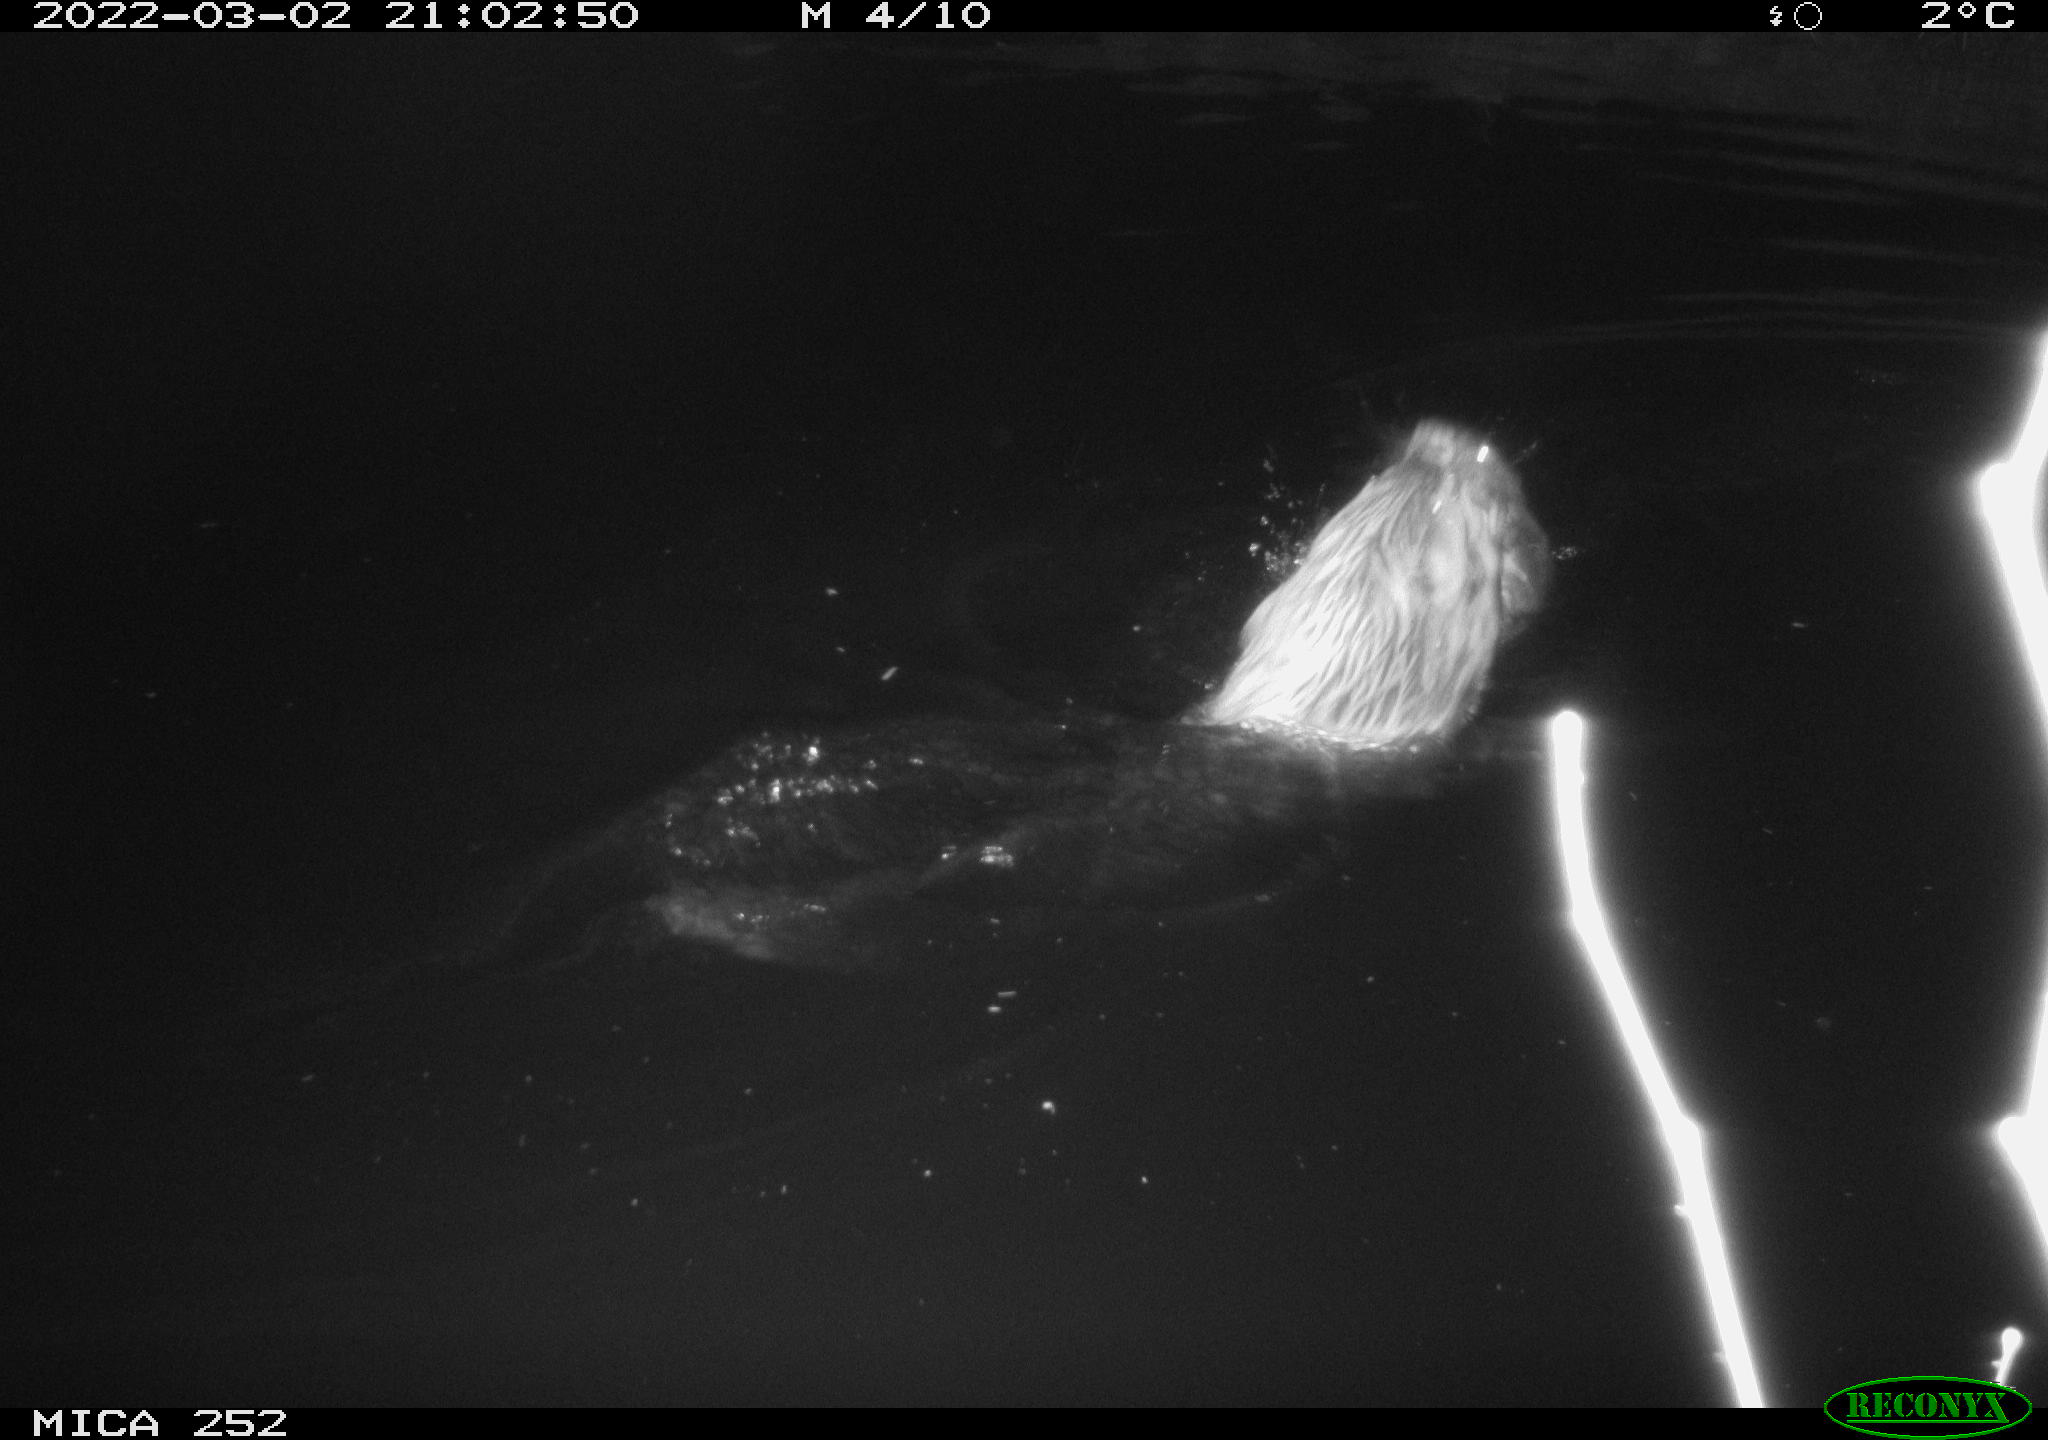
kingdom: Animalia
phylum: Chordata
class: Mammalia
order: Rodentia
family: Castoridae
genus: Castor
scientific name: Castor fiber
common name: Eurasian beaver
